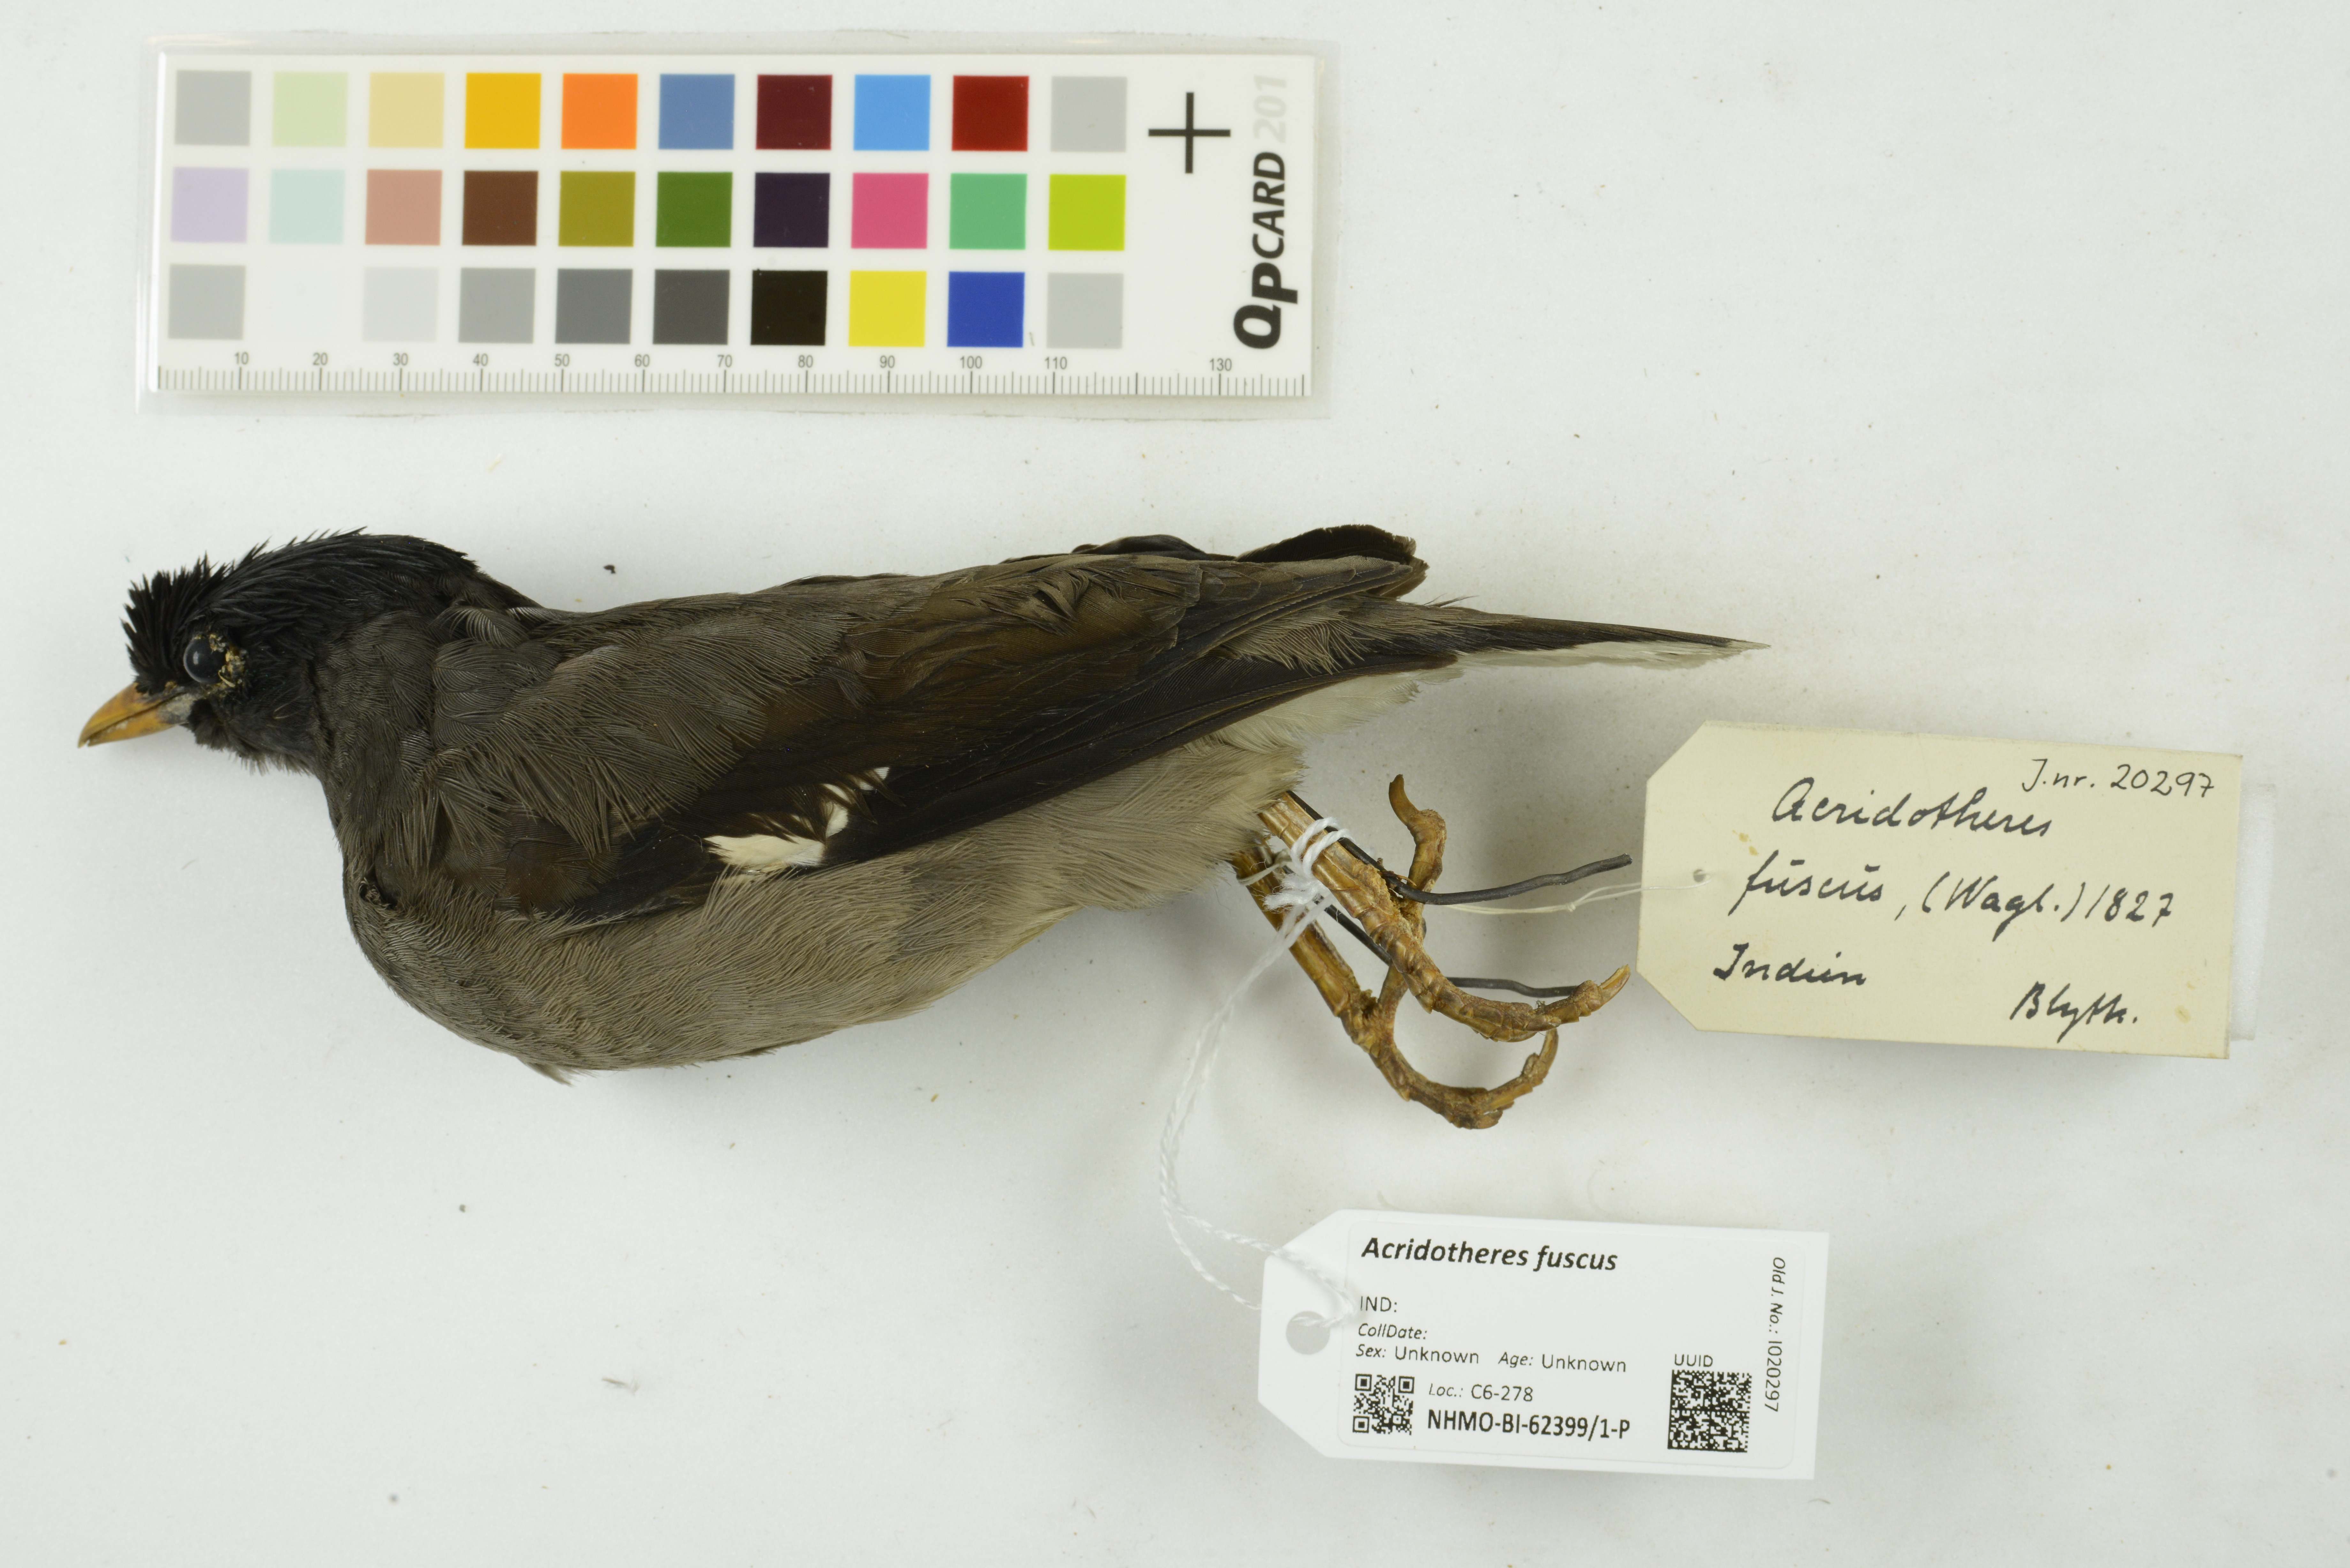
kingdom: Animalia
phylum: Chordata
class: Aves
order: Passeriformes
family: Sturnidae
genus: Acridotheres
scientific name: Acridotheres fuscus
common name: Jungle myna
